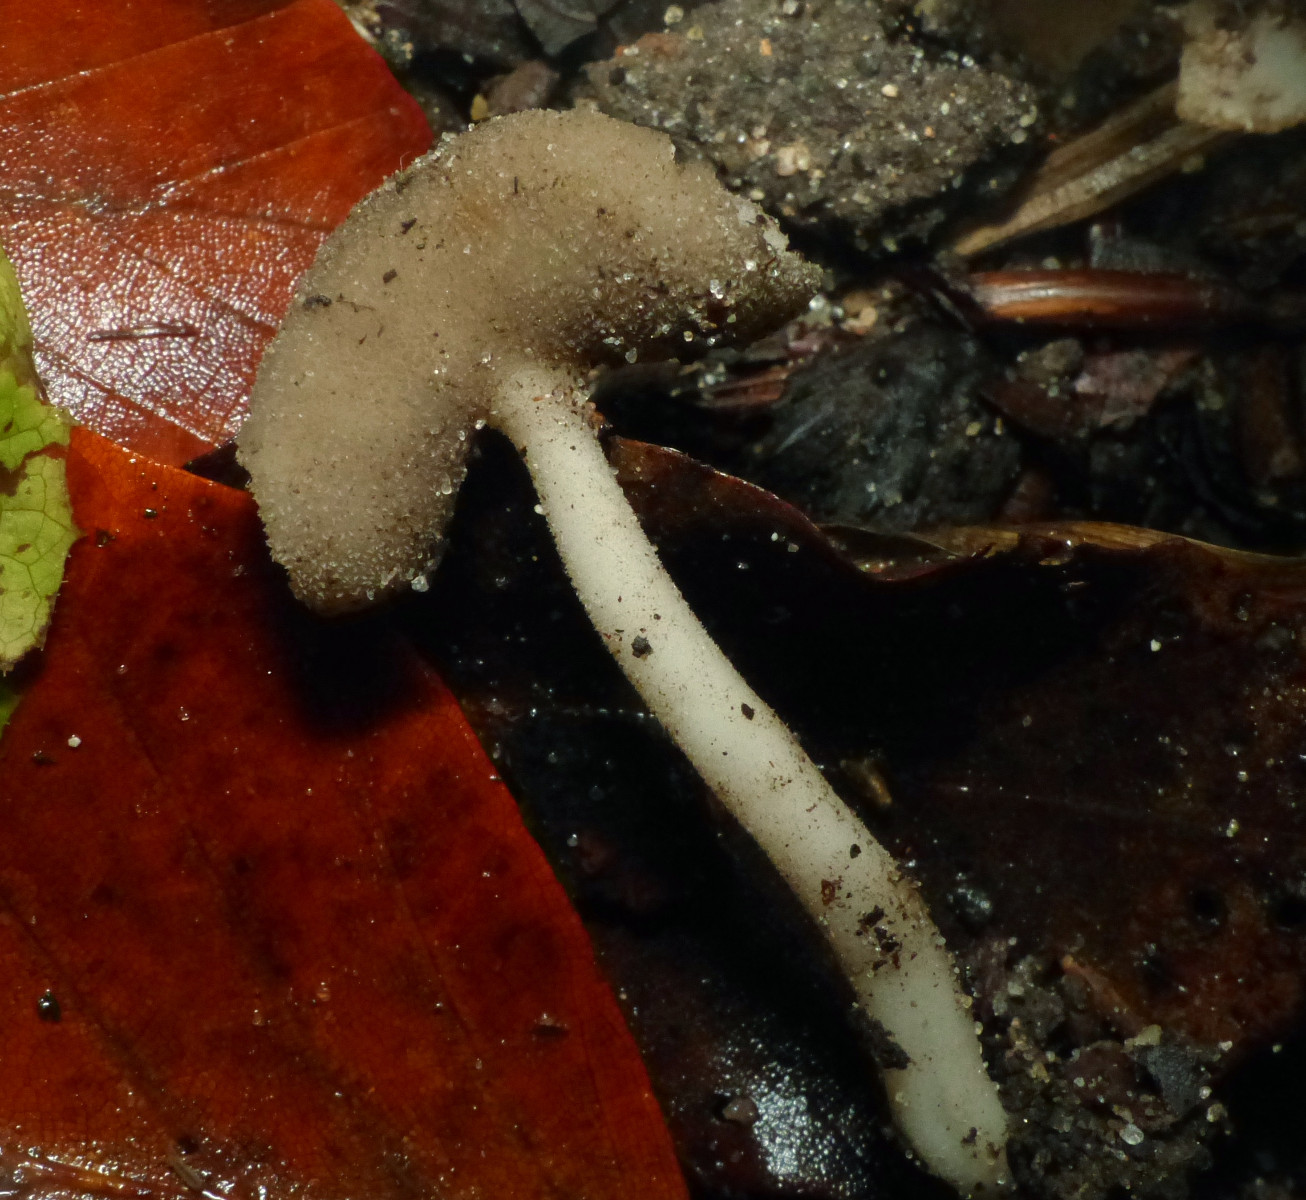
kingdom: Fungi
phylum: Ascomycota
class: Pezizomycetes
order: Pezizales
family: Helvellaceae
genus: Helvella
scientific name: Helvella fibrosa
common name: dunstokket foldhat
